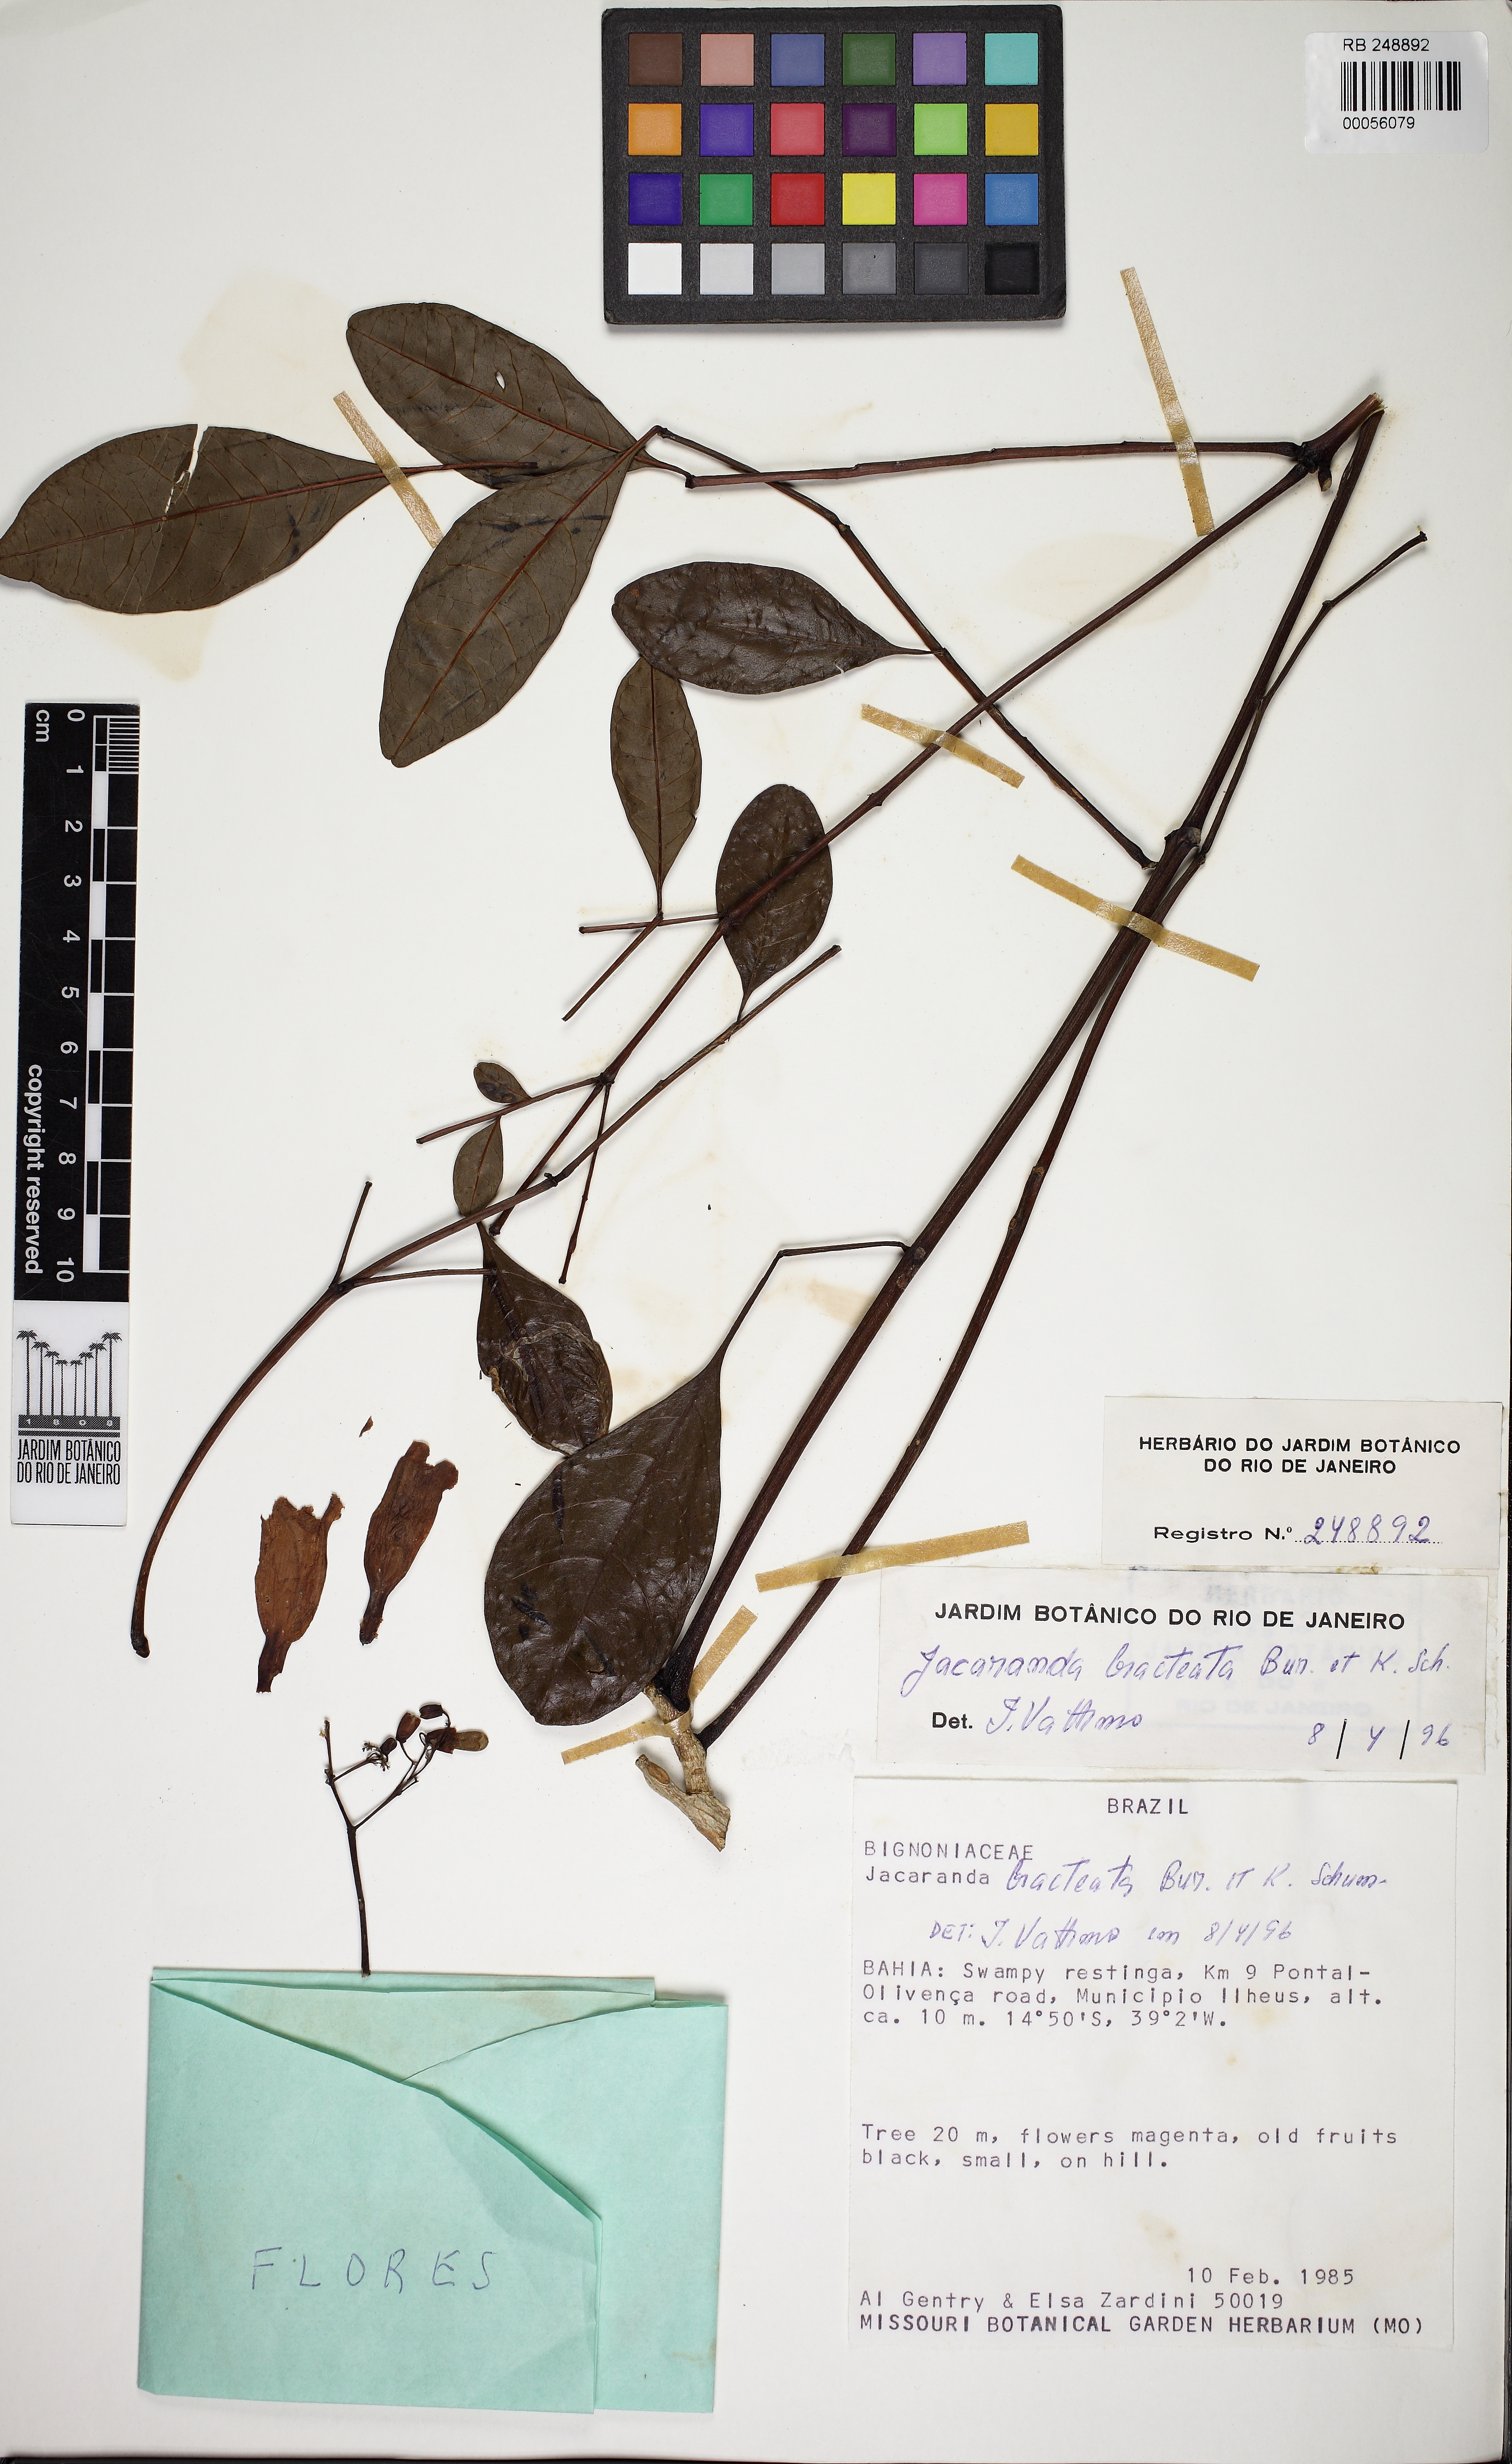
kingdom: Plantae
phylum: Tracheophyta
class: Magnoliopsida
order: Lamiales
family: Bignoniaceae
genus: Jacaranda
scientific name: Jacaranda bracteata
